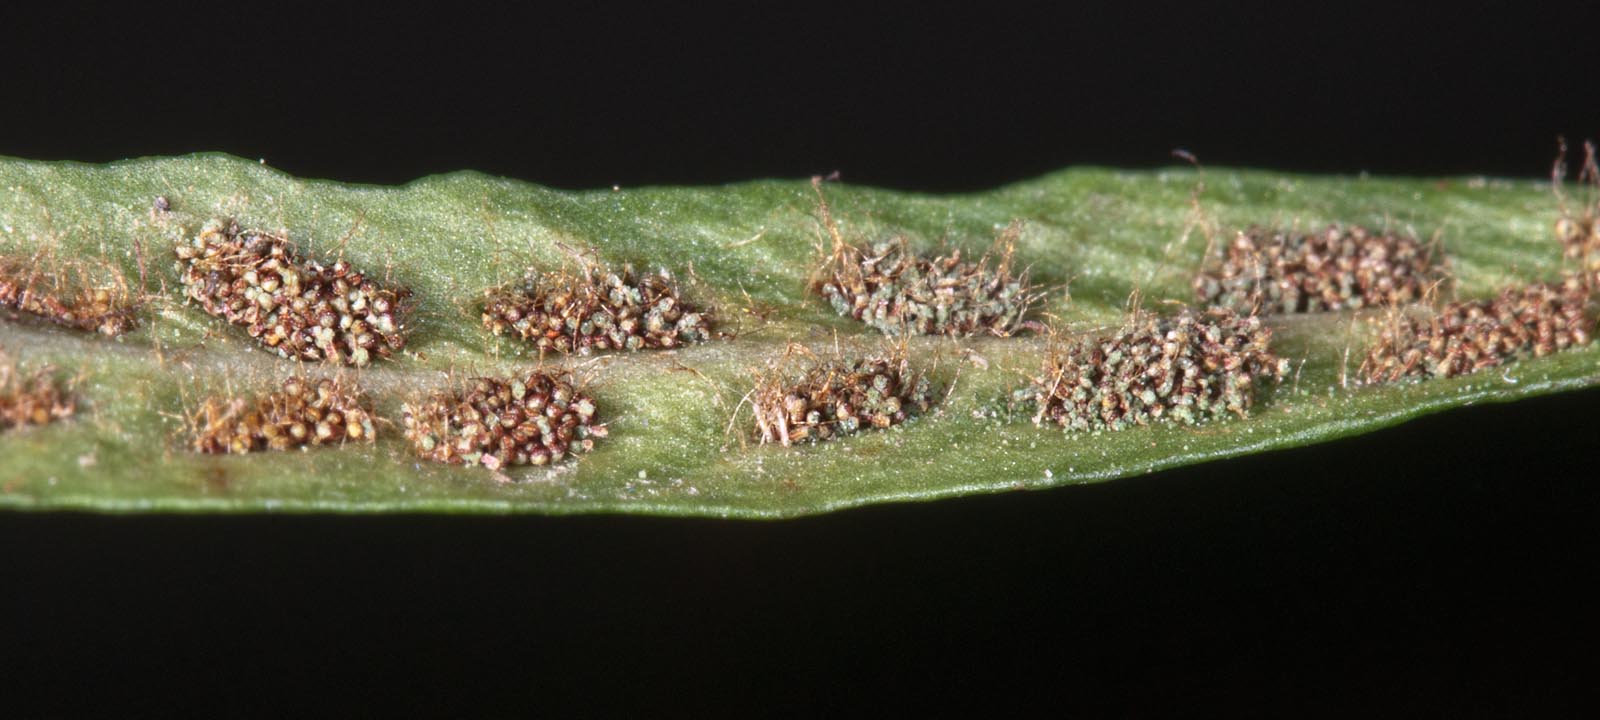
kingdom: Plantae
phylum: Tracheophyta
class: Polypodiopsida
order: Polypodiales
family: Polypodiaceae
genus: Notogrammitis
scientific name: Notogrammitis patagonica
